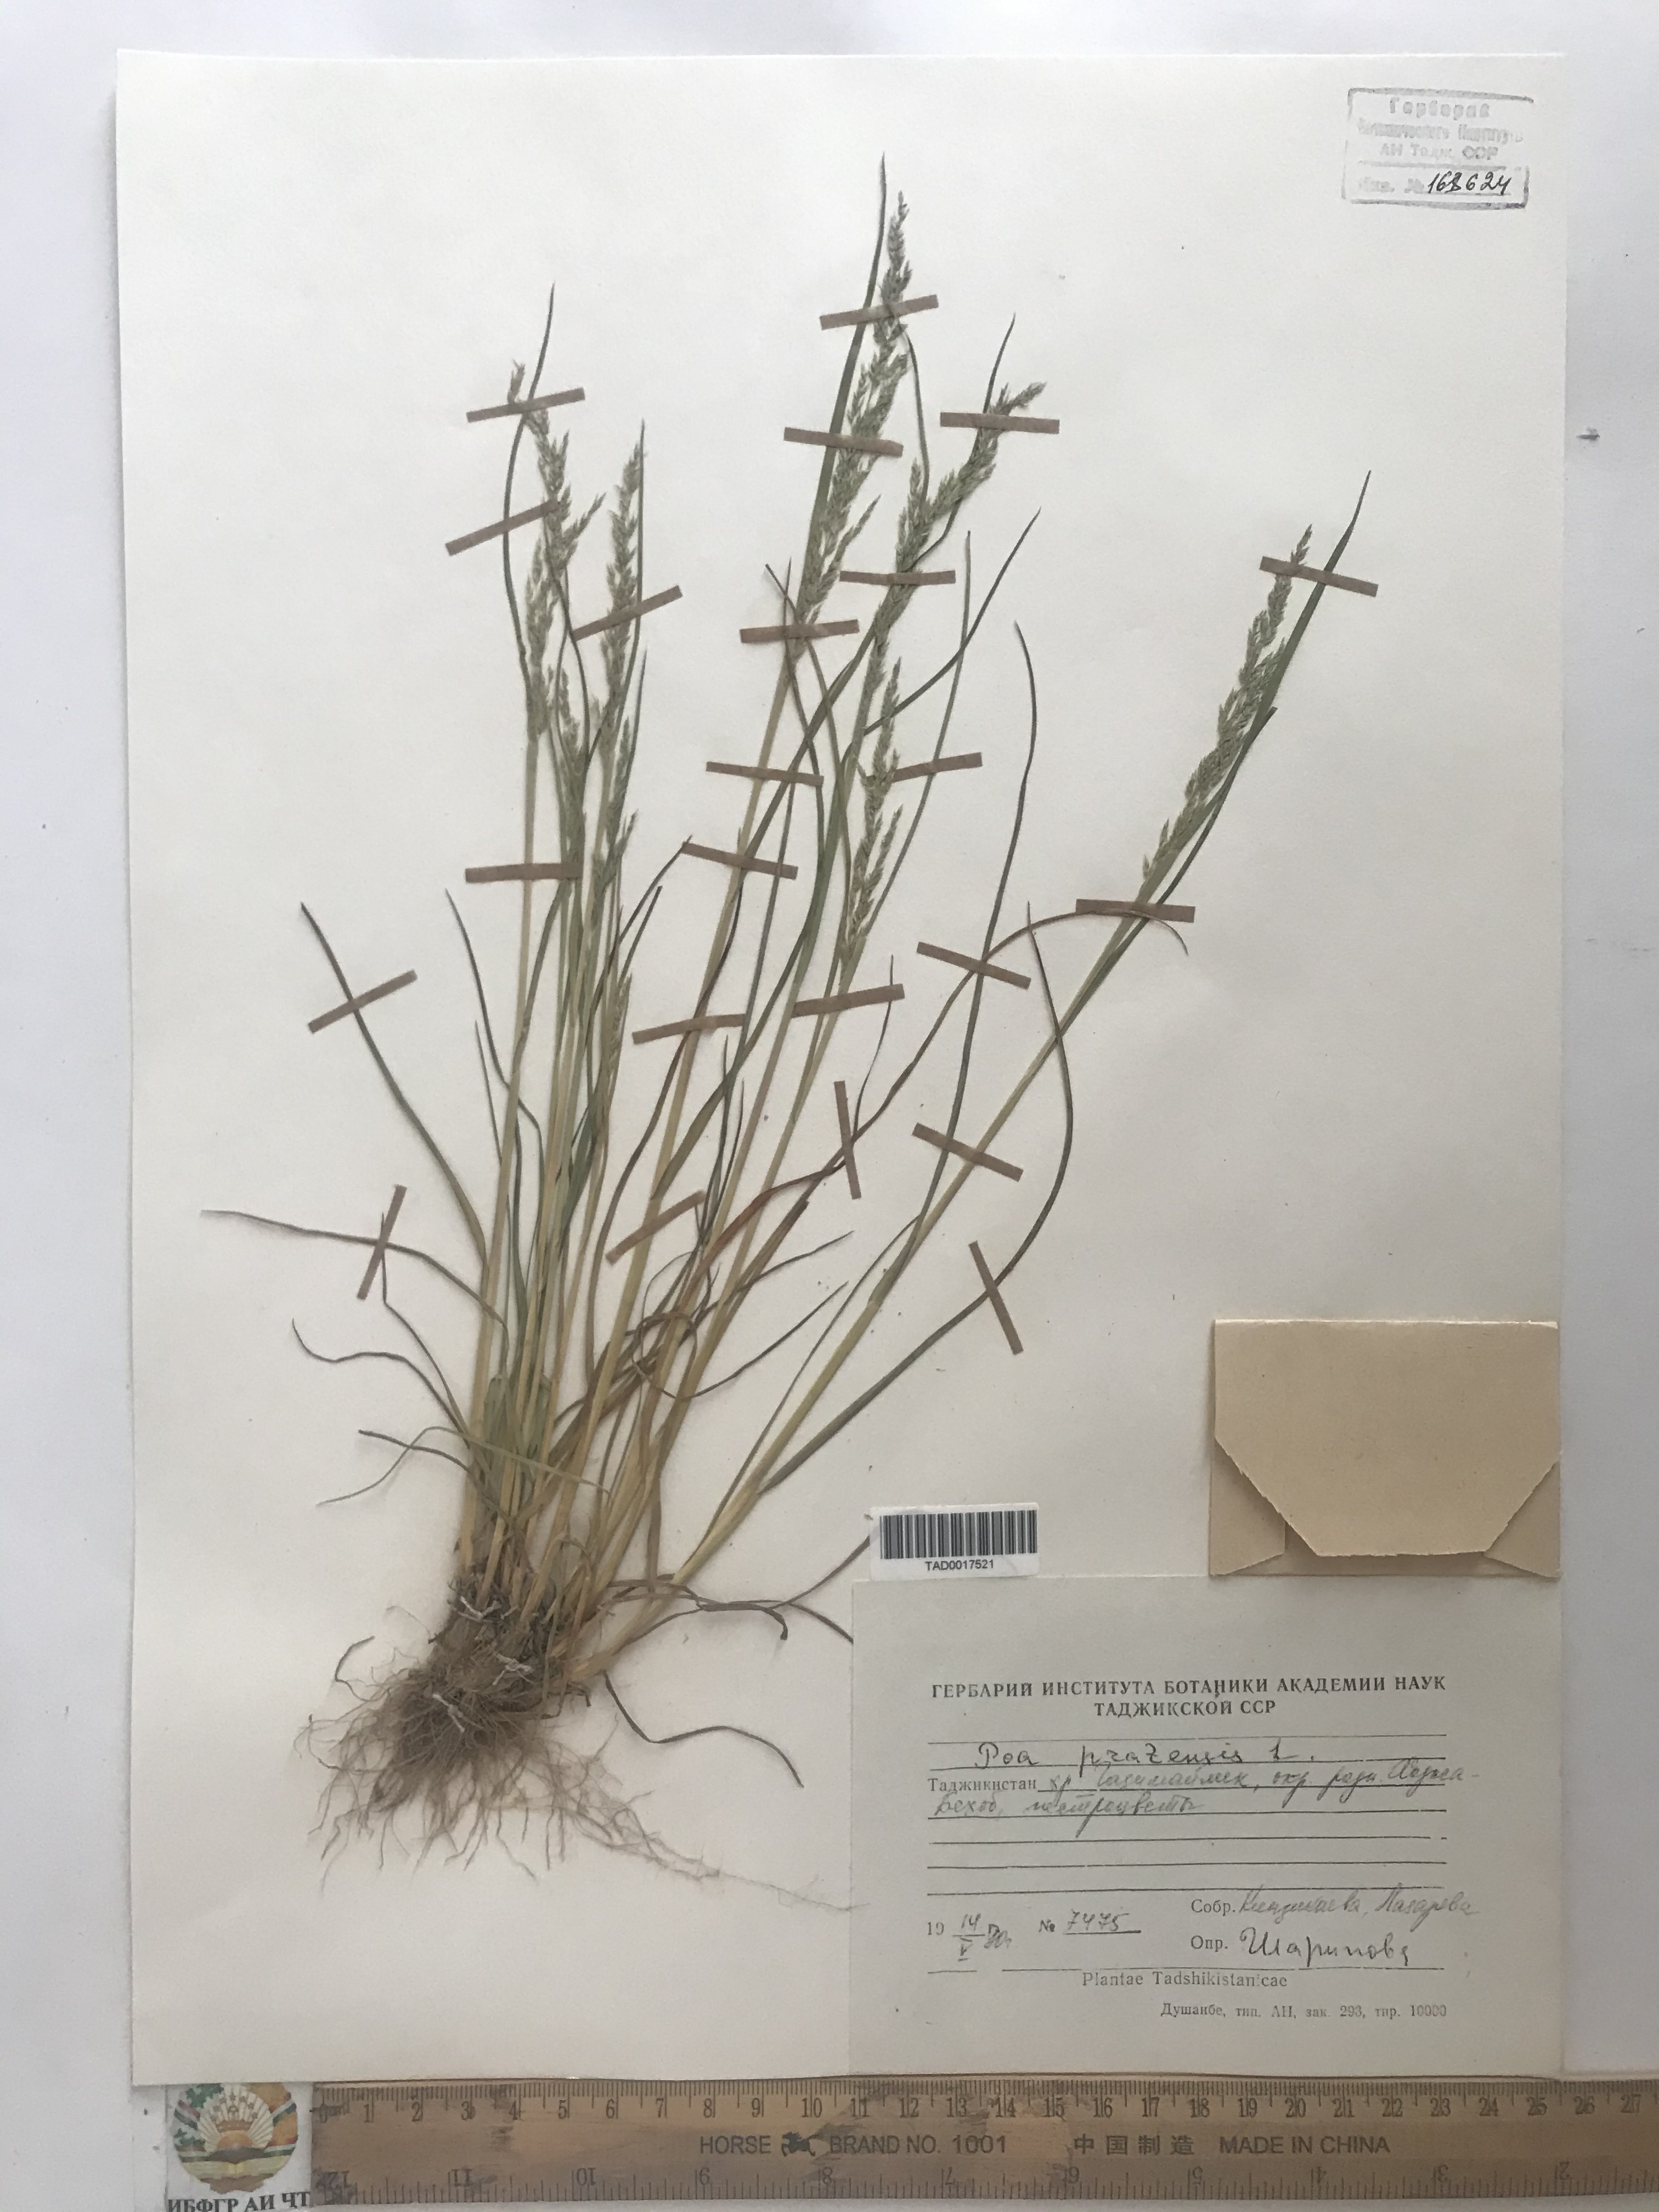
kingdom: Plantae
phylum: Tracheophyta
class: Liliopsida
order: Poales
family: Poaceae
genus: Poa
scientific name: Poa pratensis
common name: Kentucky bluegrass
